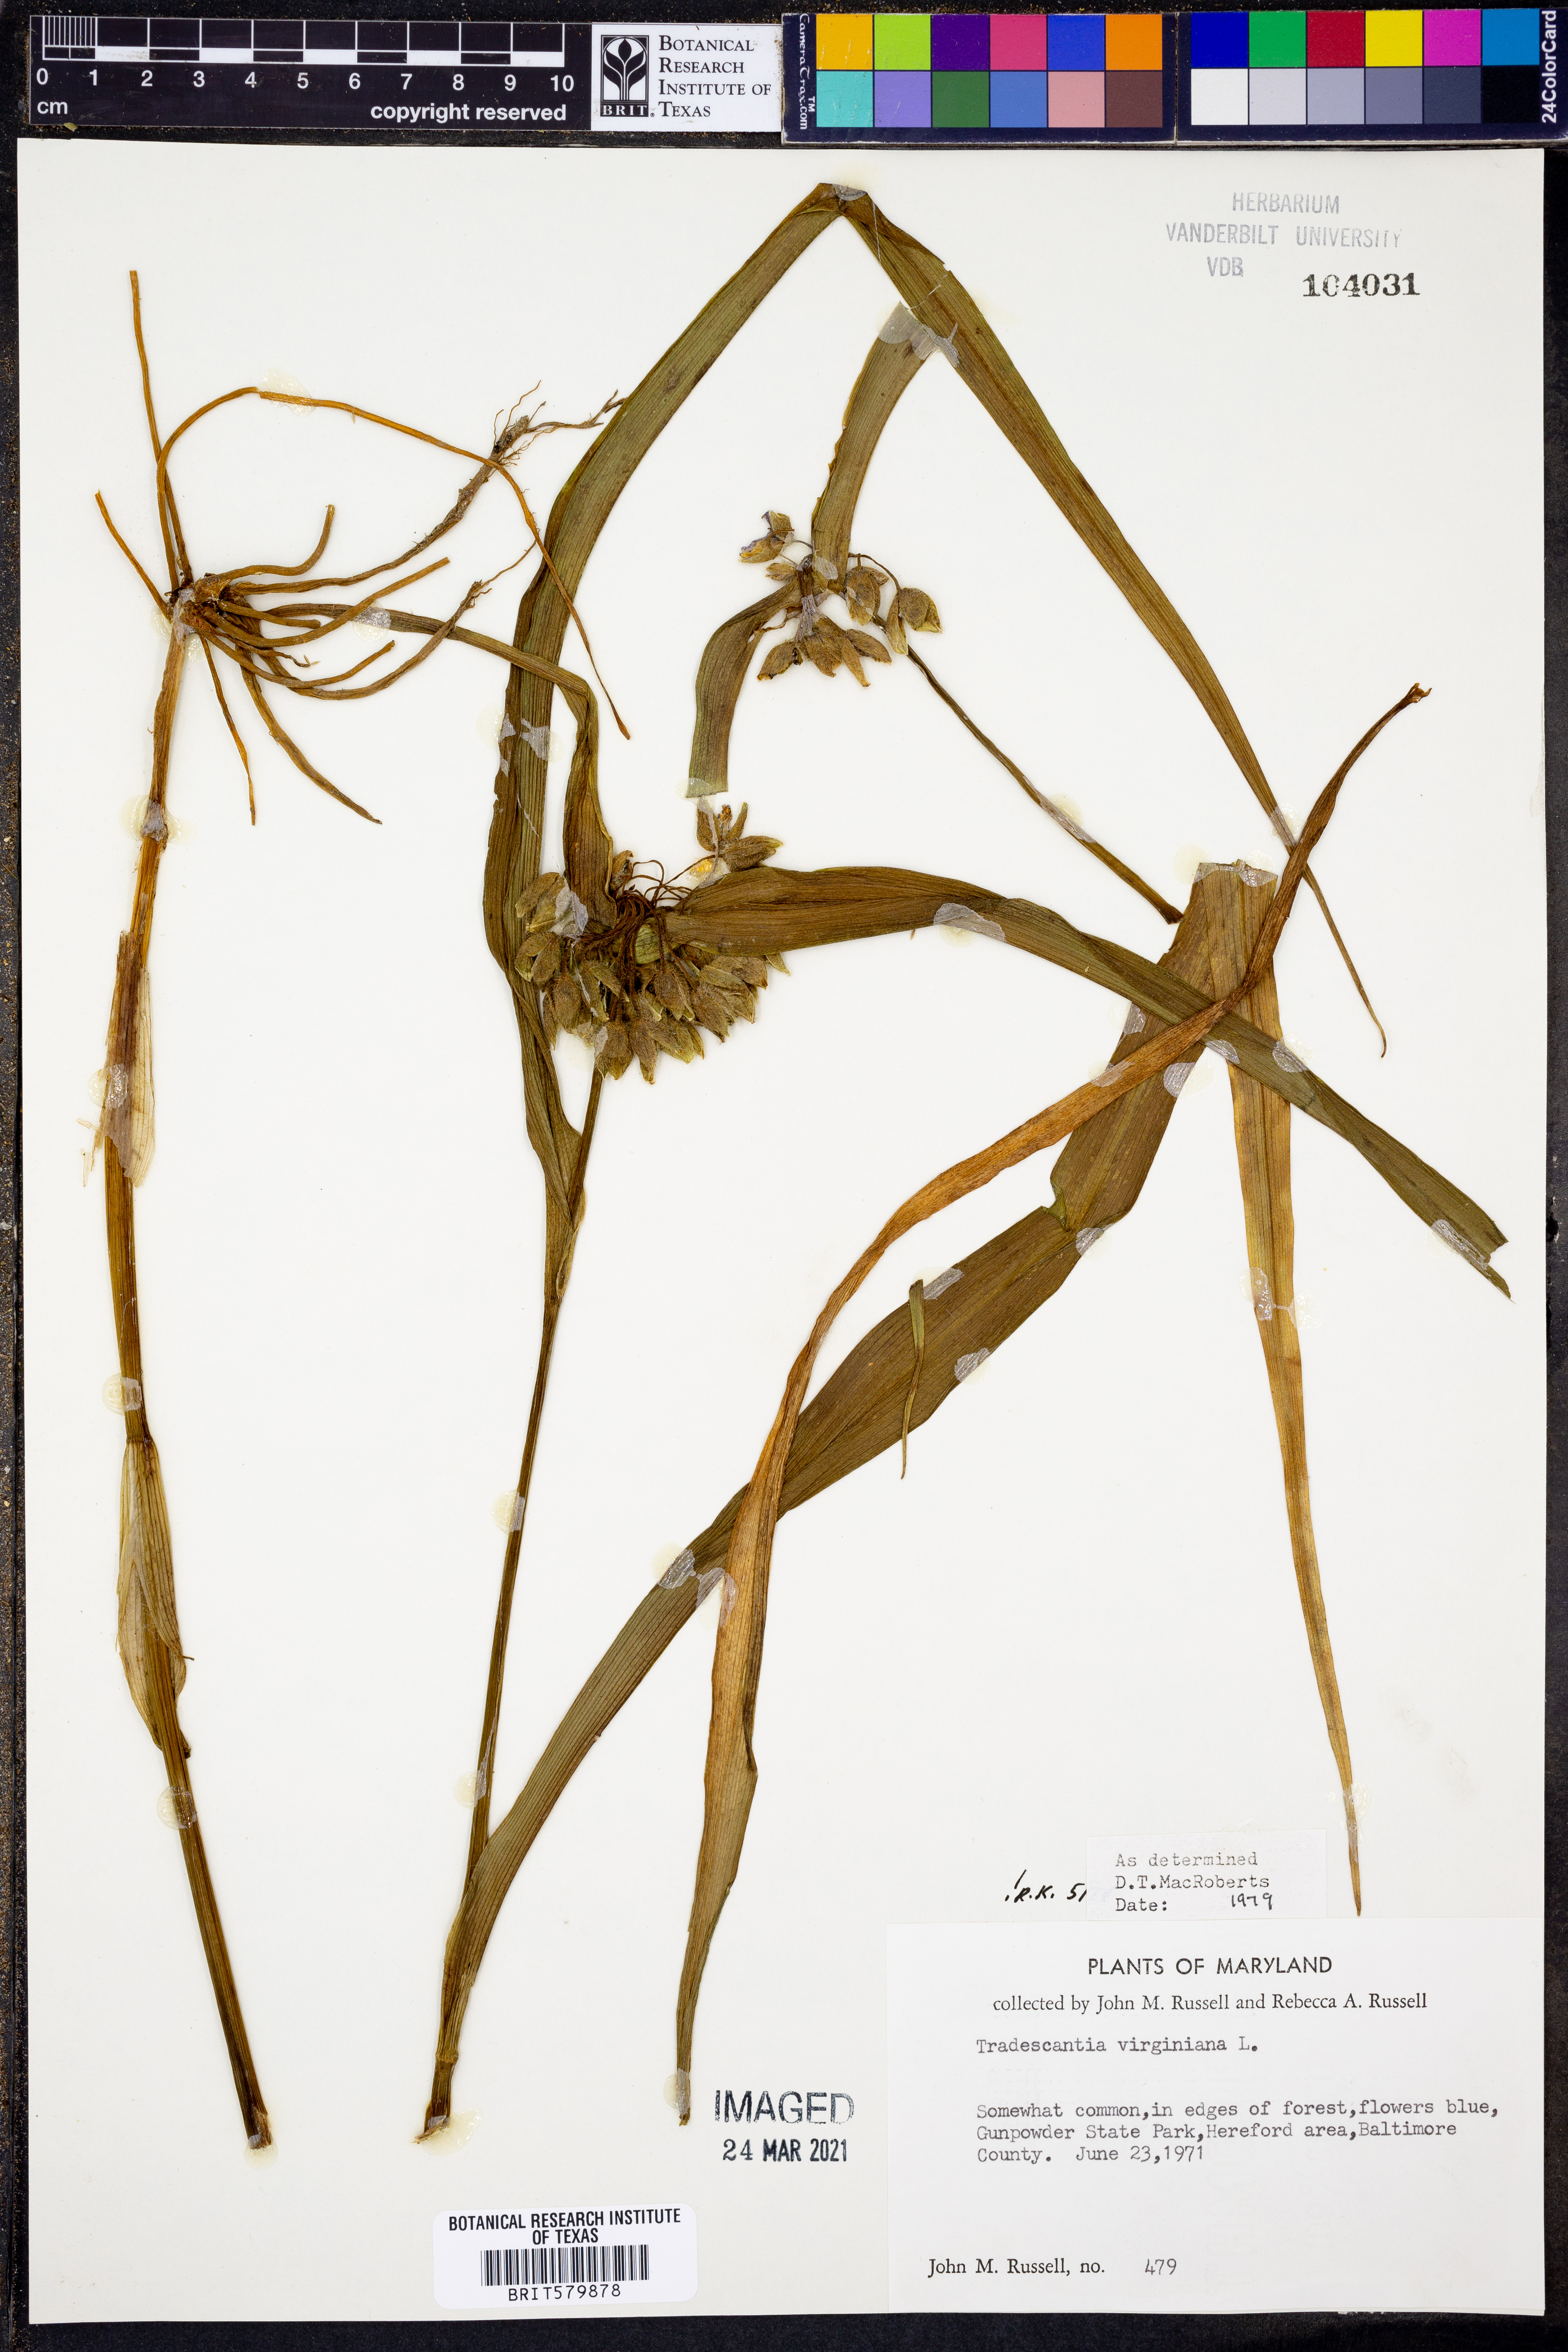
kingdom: Plantae
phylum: Tracheophyta
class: Liliopsida
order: Commelinales
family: Commelinaceae
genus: Tradescantia
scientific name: Tradescantia virginiana
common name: Spiderwort
